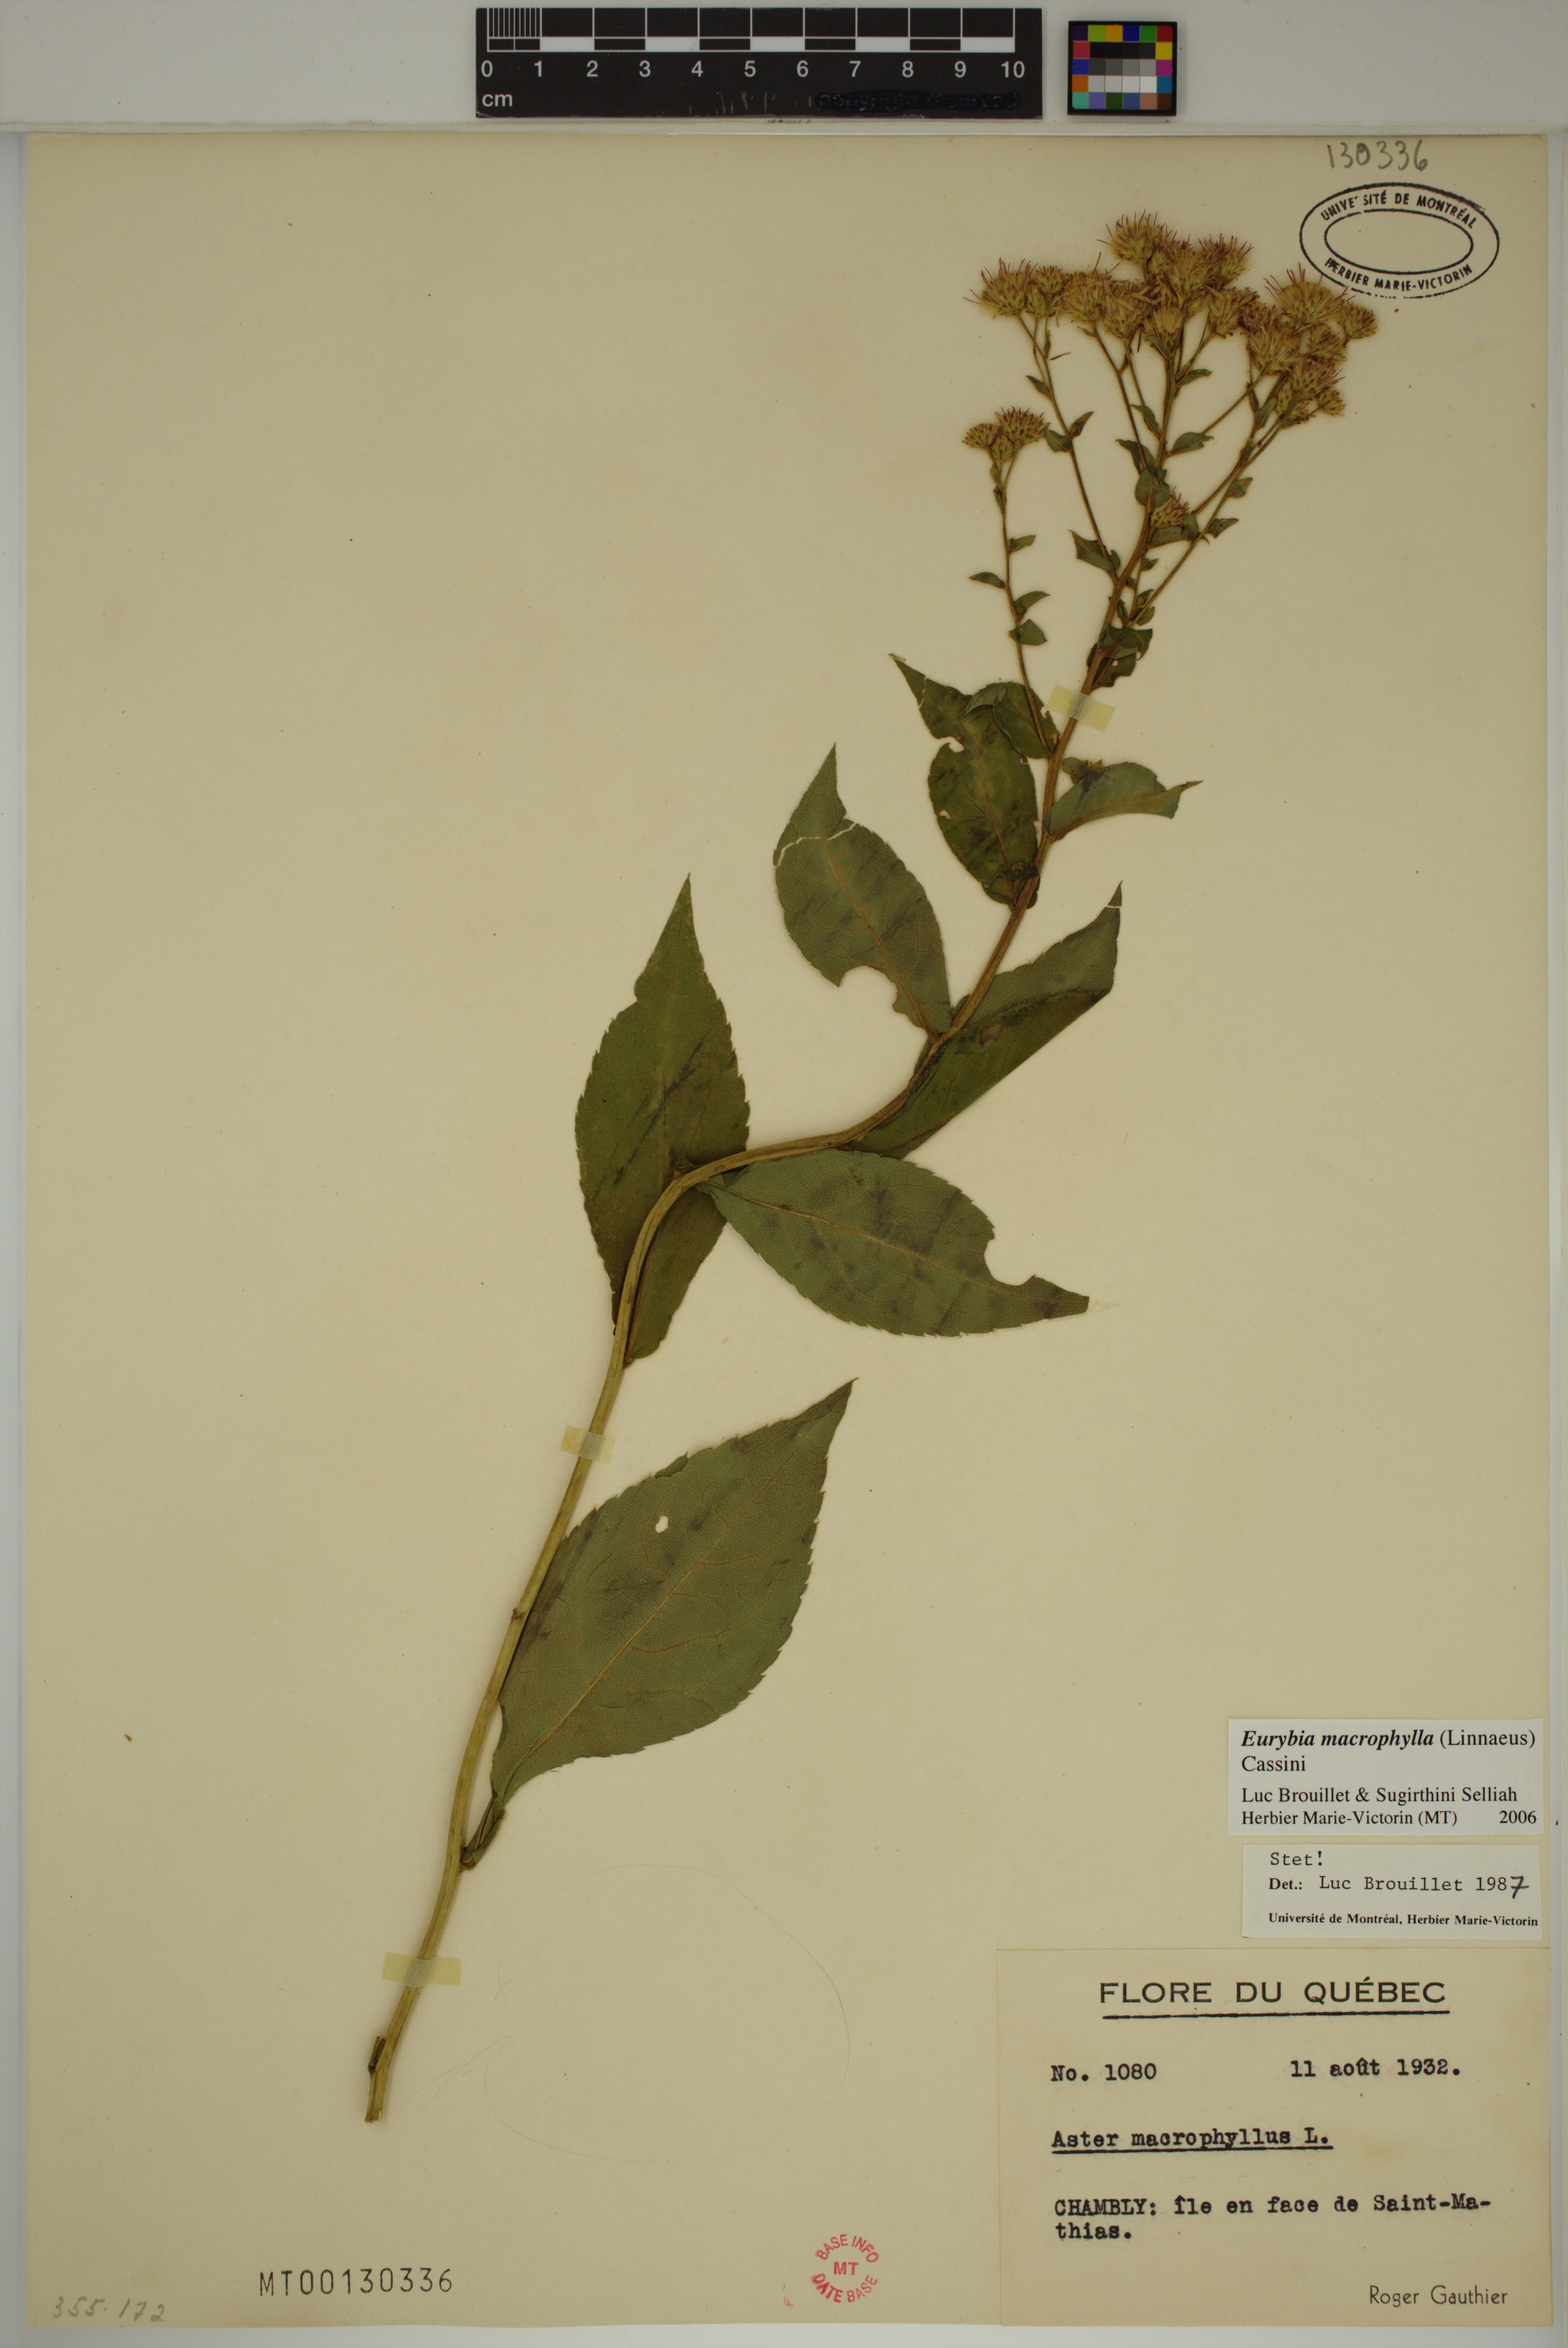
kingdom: Plantae
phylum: Tracheophyta
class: Magnoliopsida
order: Asterales
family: Asteraceae
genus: Eurybia
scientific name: Eurybia macrophylla
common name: Big-leaved aster
